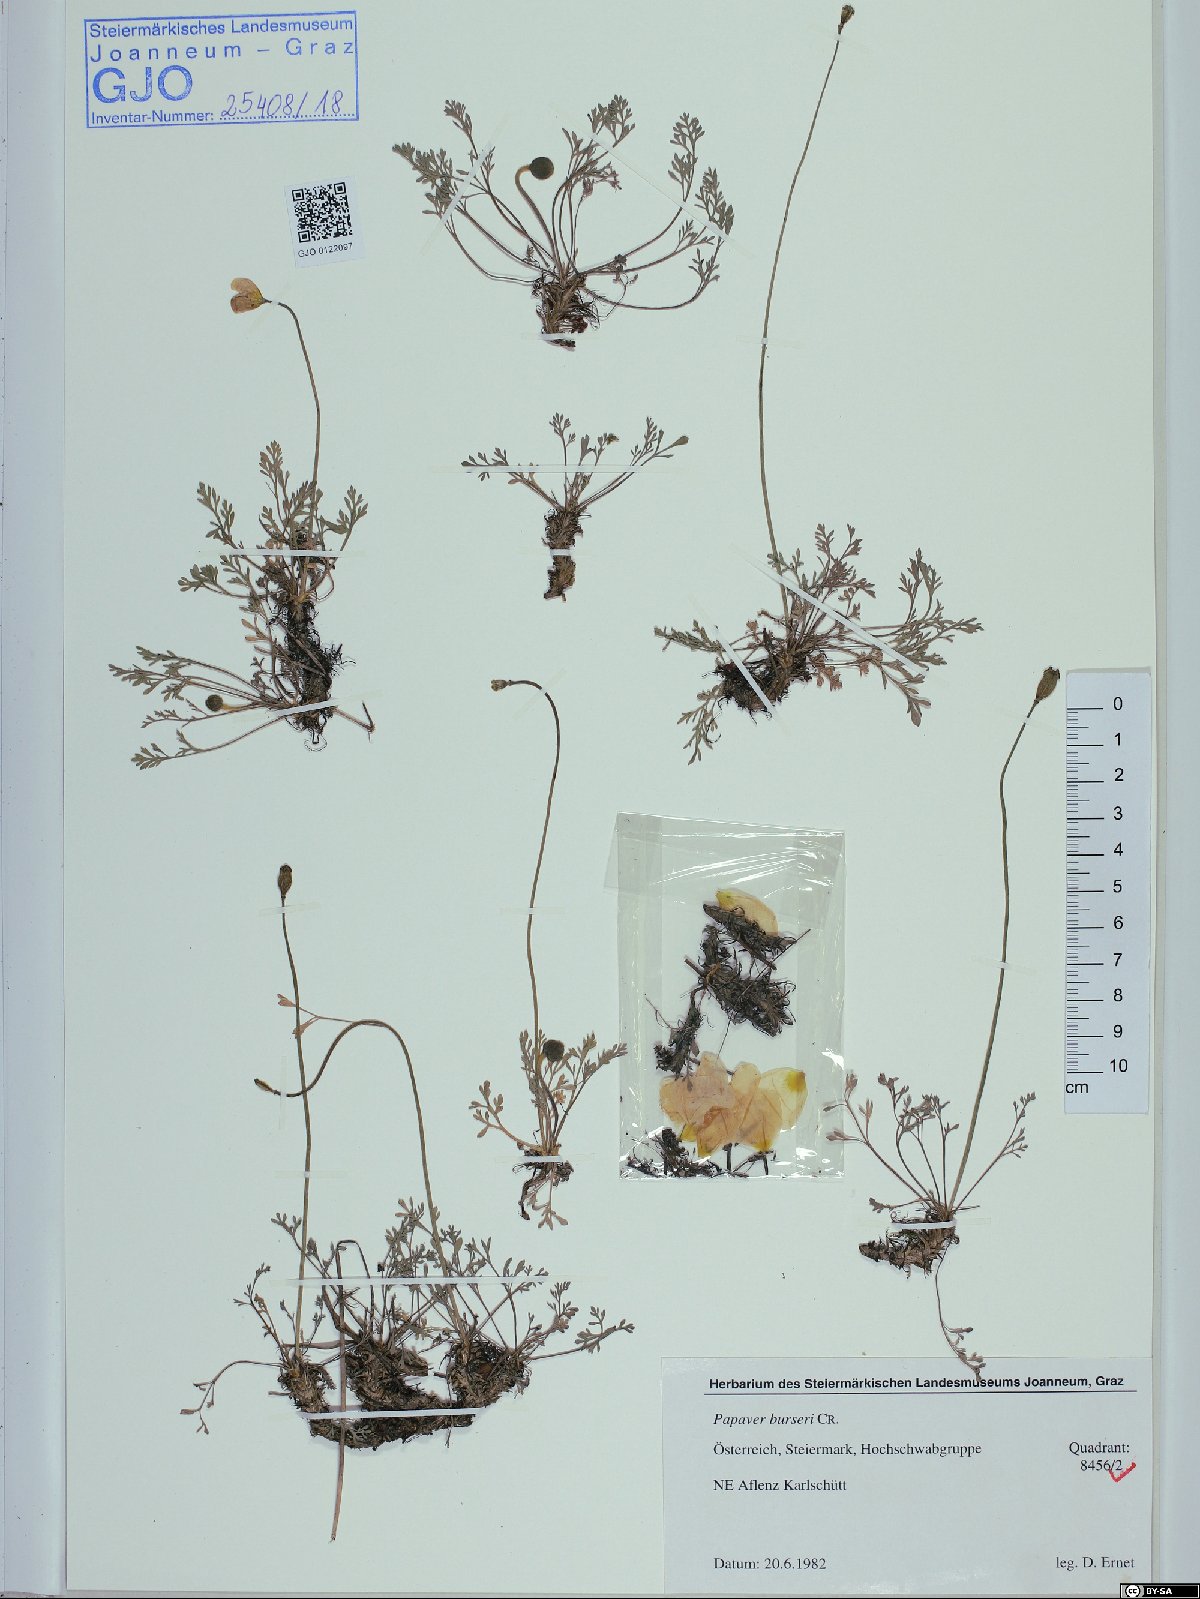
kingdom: Plantae
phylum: Tracheophyta
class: Magnoliopsida
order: Ranunculales
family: Papaveraceae
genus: Papaver
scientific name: Papaver alpinum
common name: Austrian poppy
